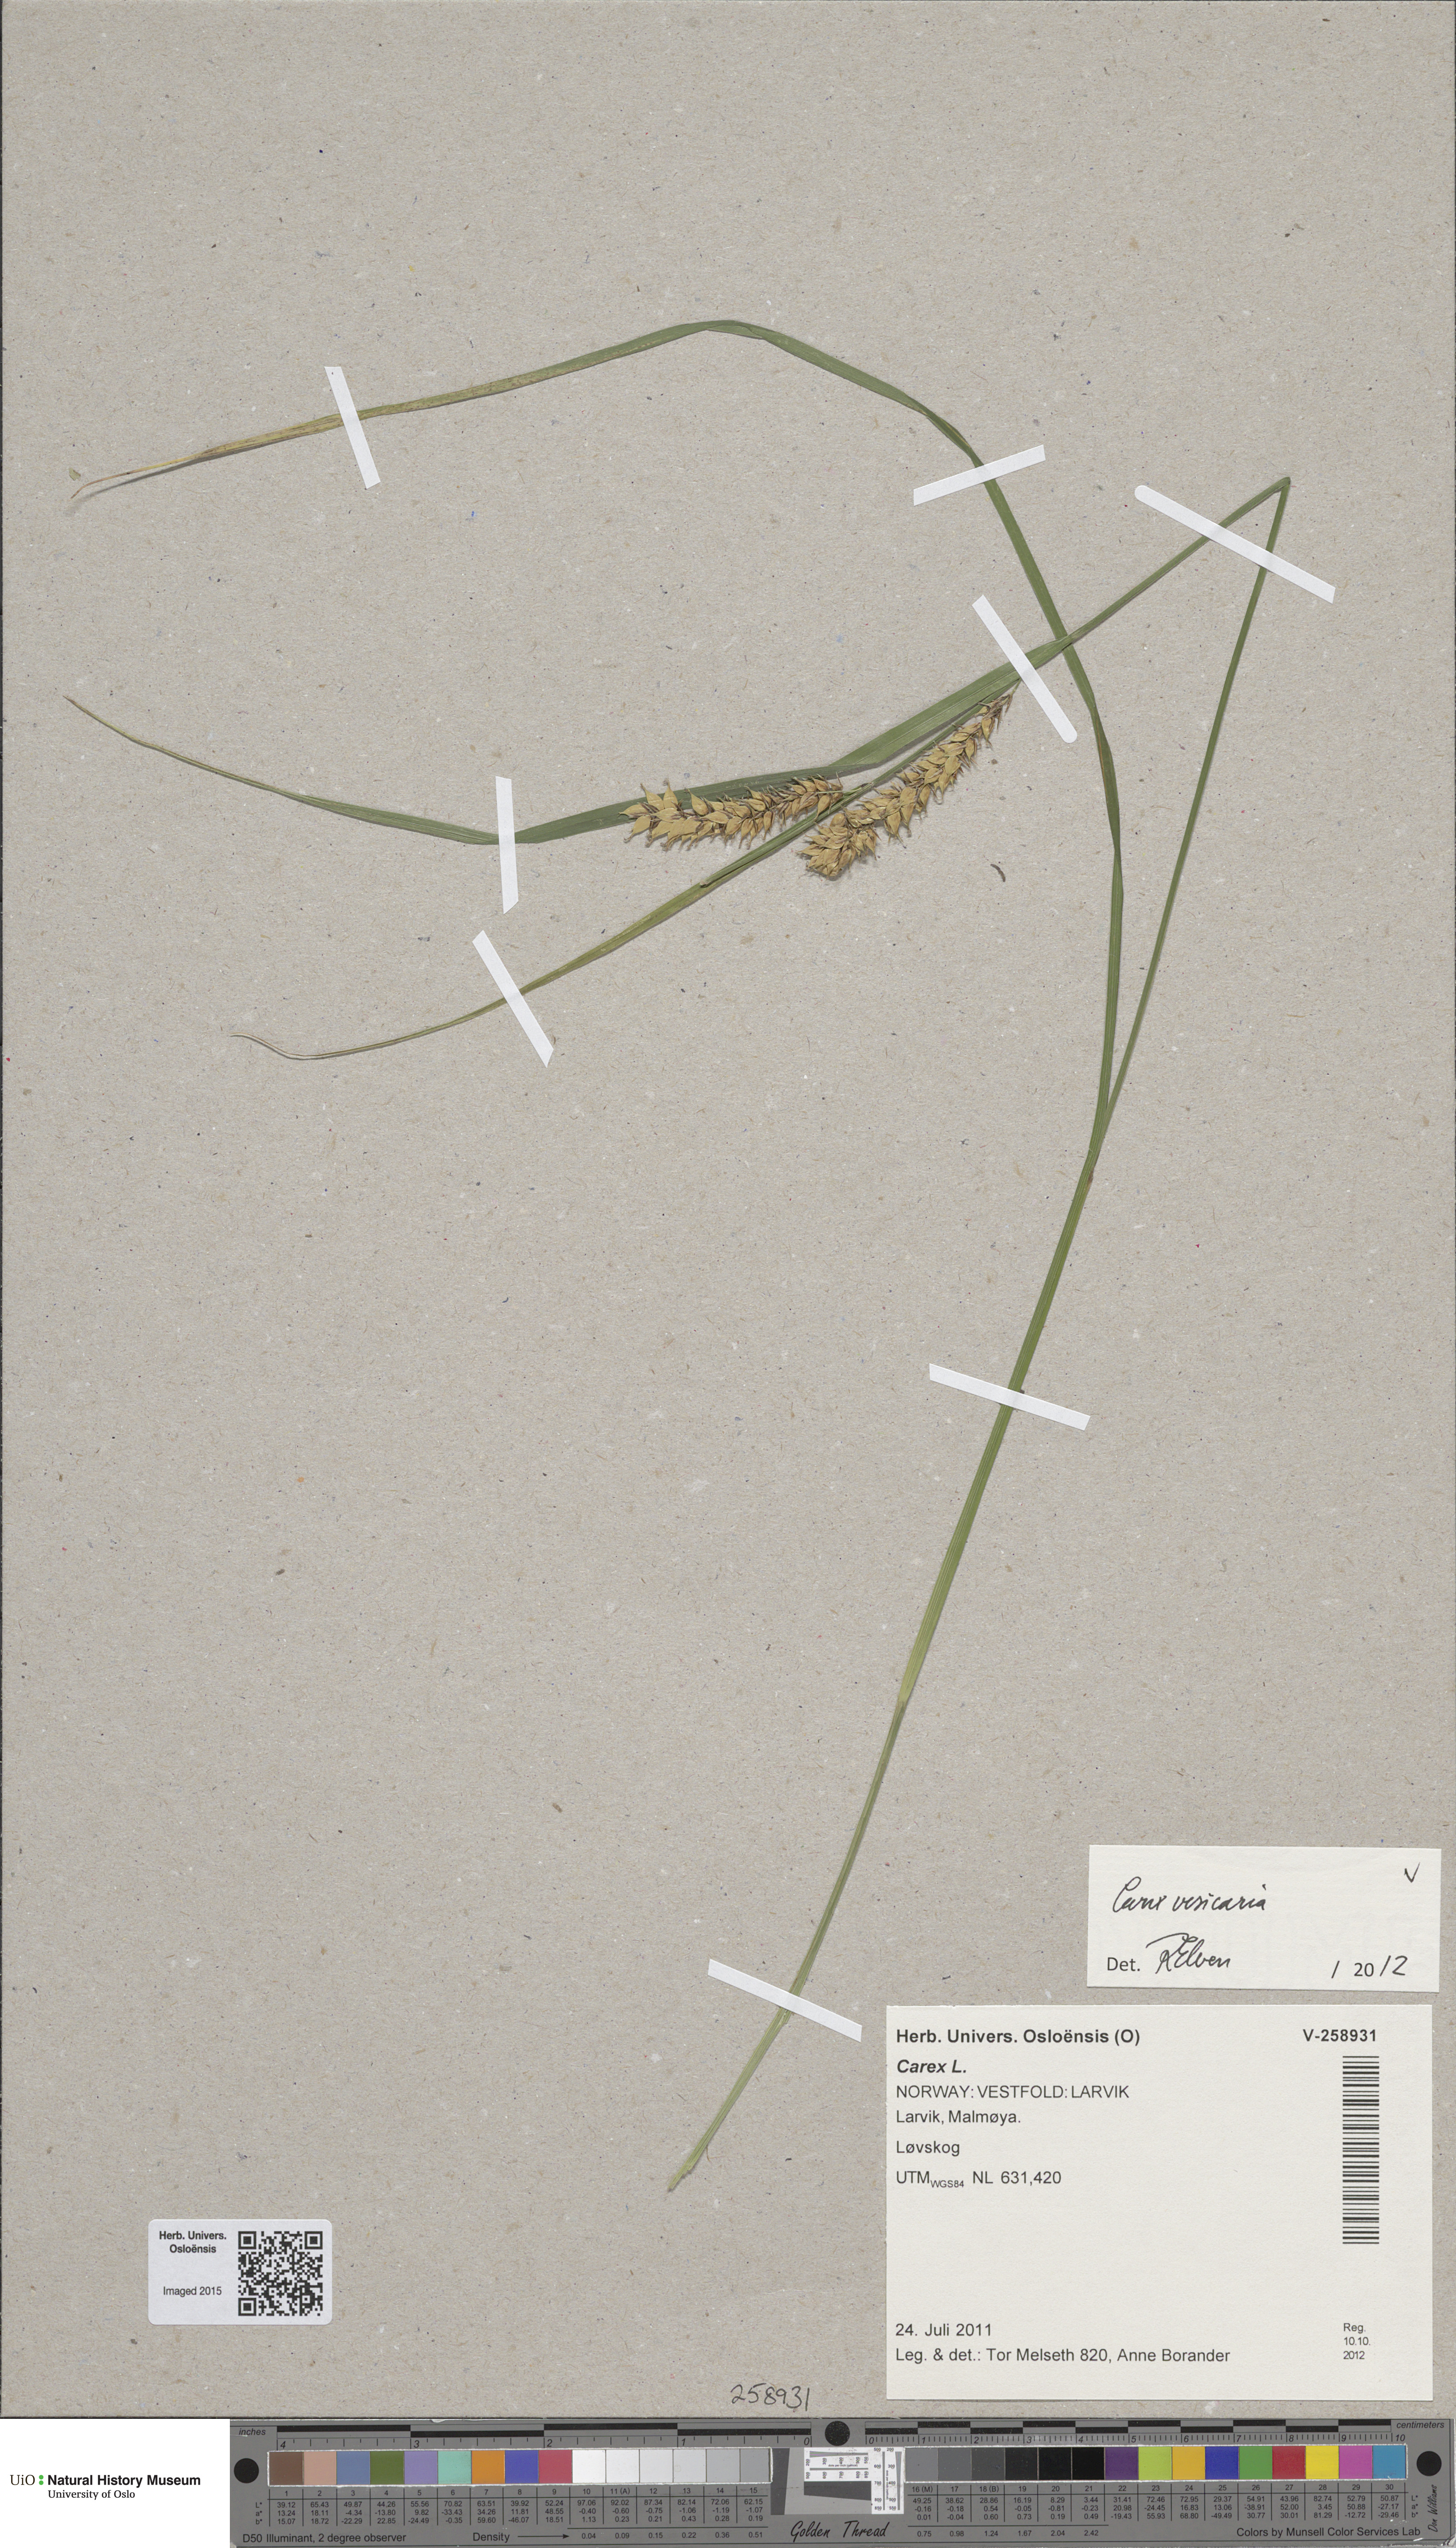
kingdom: Plantae
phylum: Tracheophyta
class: Liliopsida
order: Poales
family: Cyperaceae
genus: Carex
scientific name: Carex vesicaria
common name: Bladder-sedge
